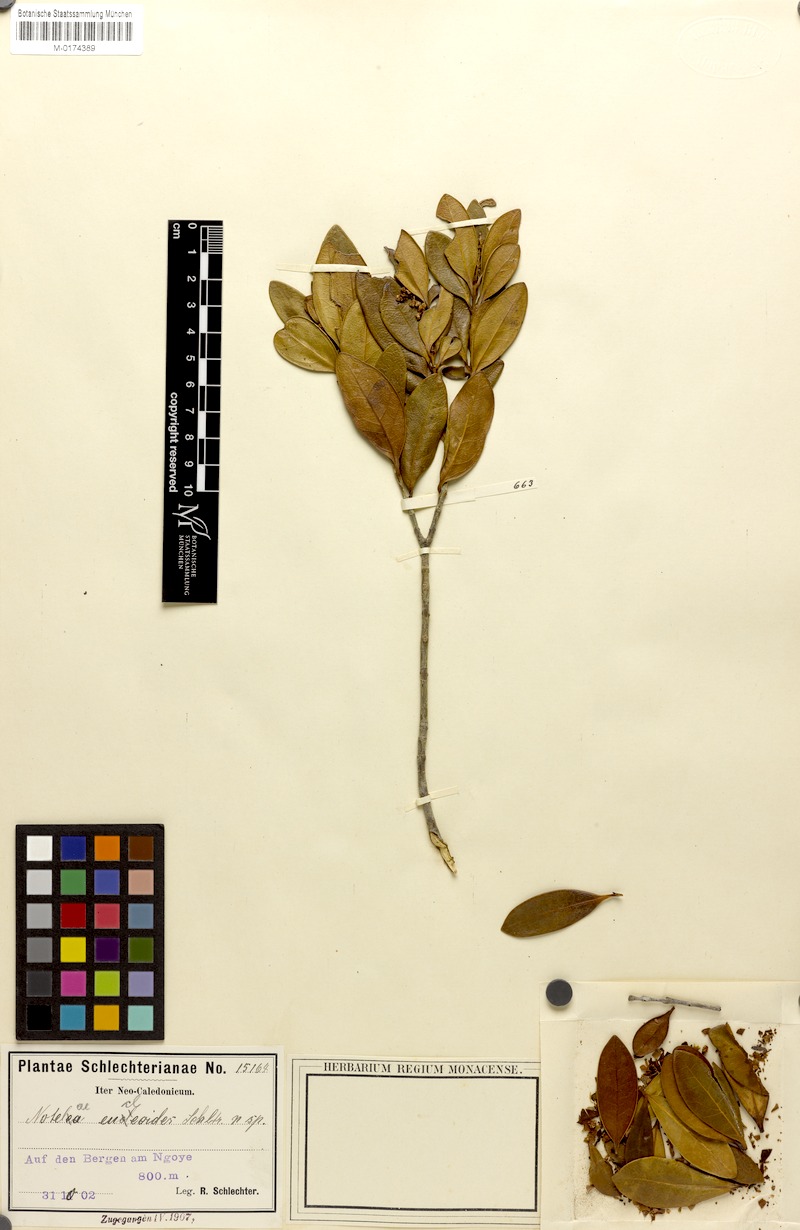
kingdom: Plantae
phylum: Tracheophyta
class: Magnoliopsida
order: Lamiales
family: Oleaceae
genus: Osmanthus
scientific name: Osmanthus austrocaledonicus
